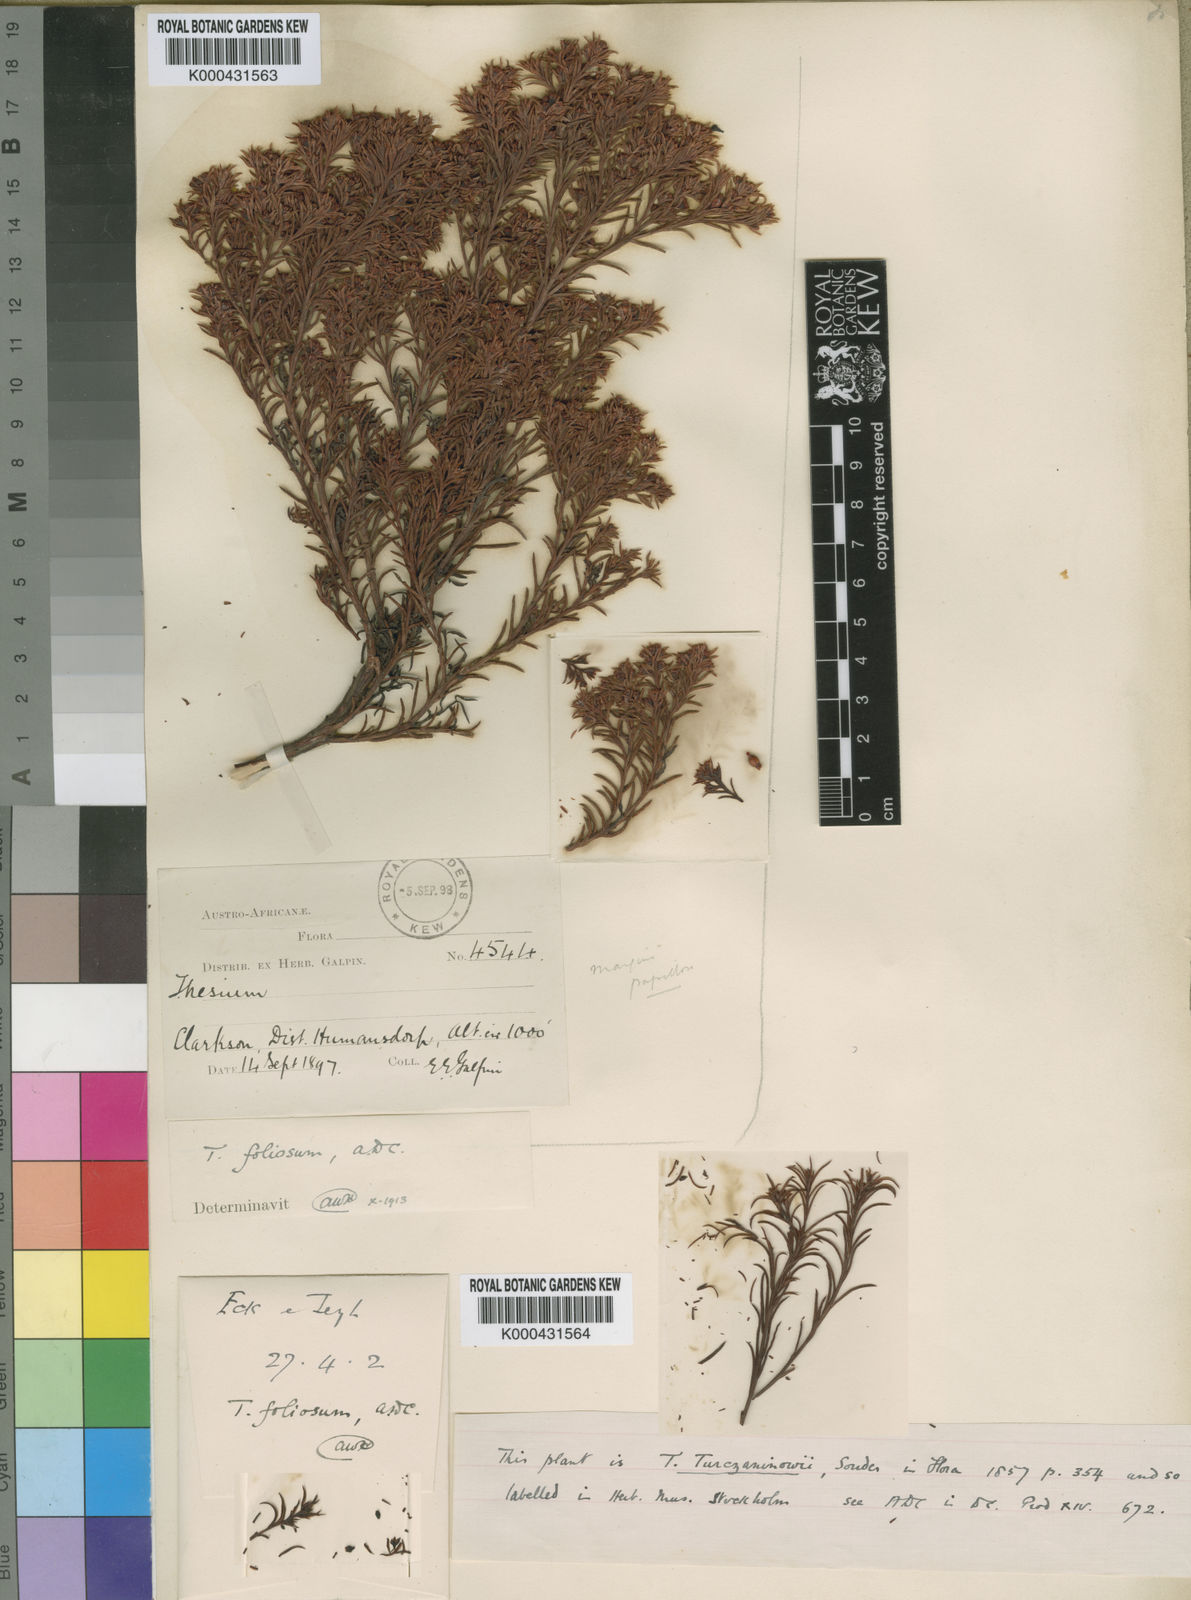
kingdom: Plantae
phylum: Tracheophyta
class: Magnoliopsida
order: Santalales
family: Thesiaceae
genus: Thesium
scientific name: Thesium foliosum
